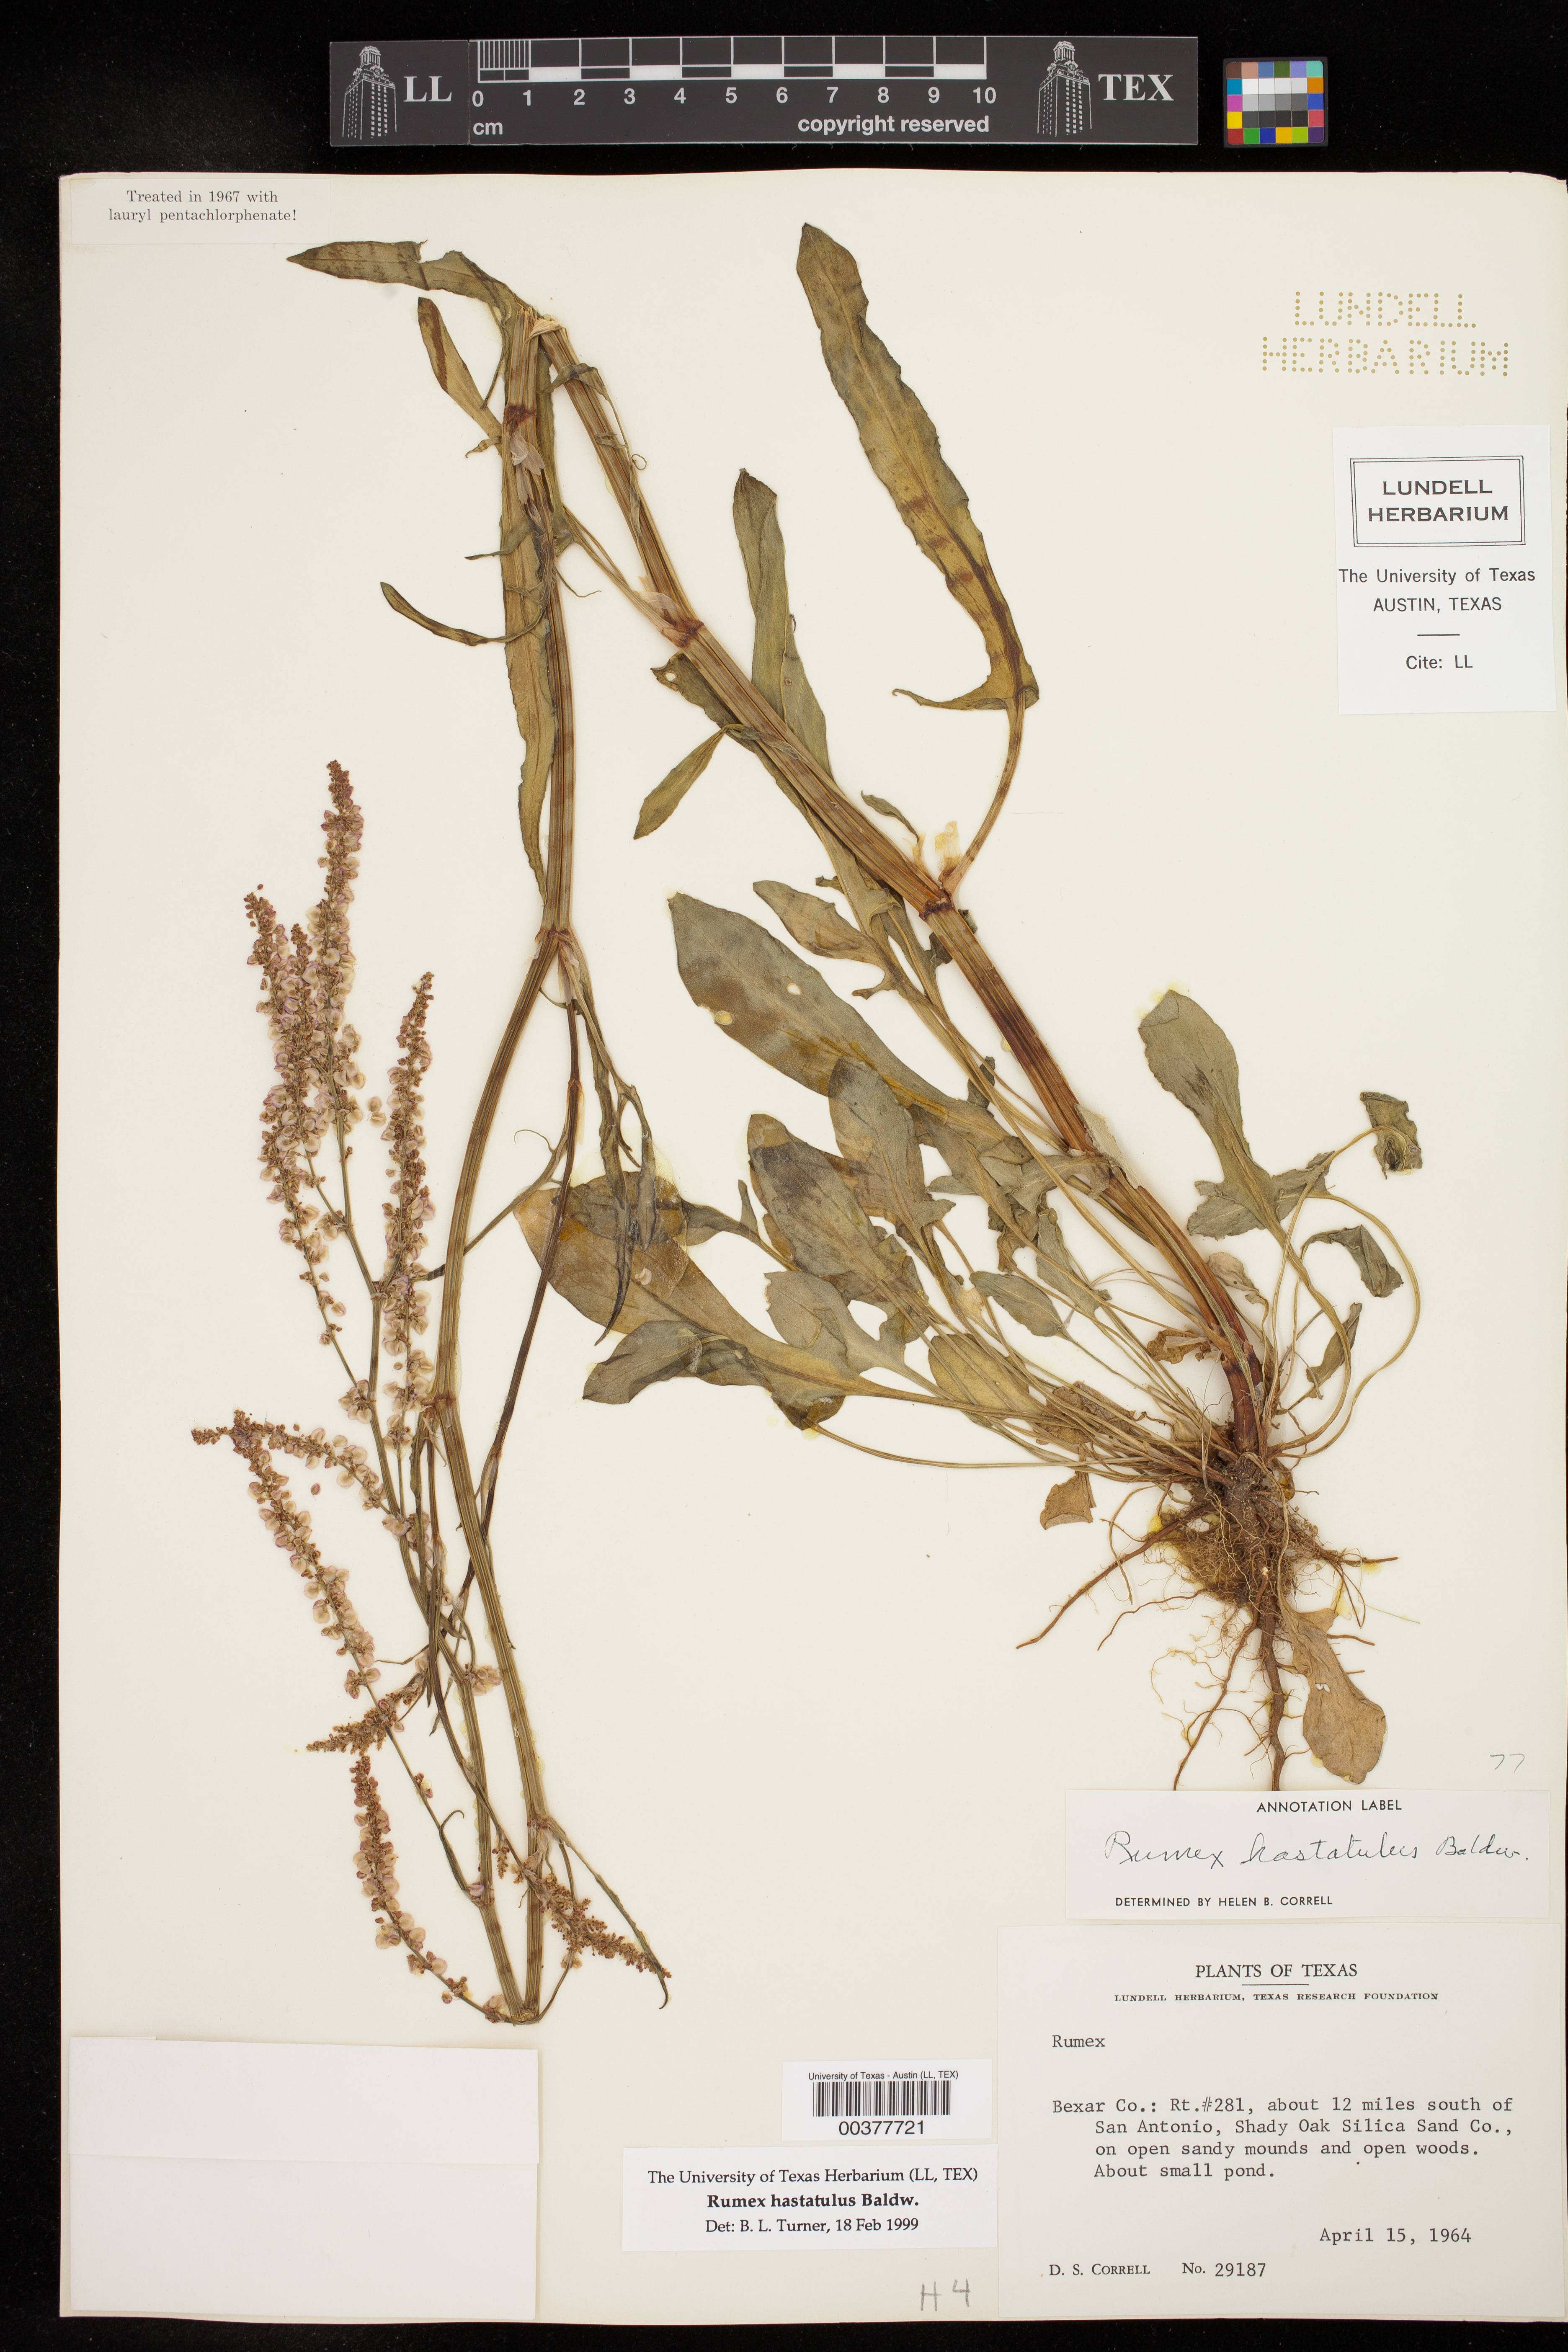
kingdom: Plantae
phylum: Tracheophyta
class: Magnoliopsida
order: Caryophyllales
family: Polygonaceae
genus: Rumex
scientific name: Rumex hastatulus
